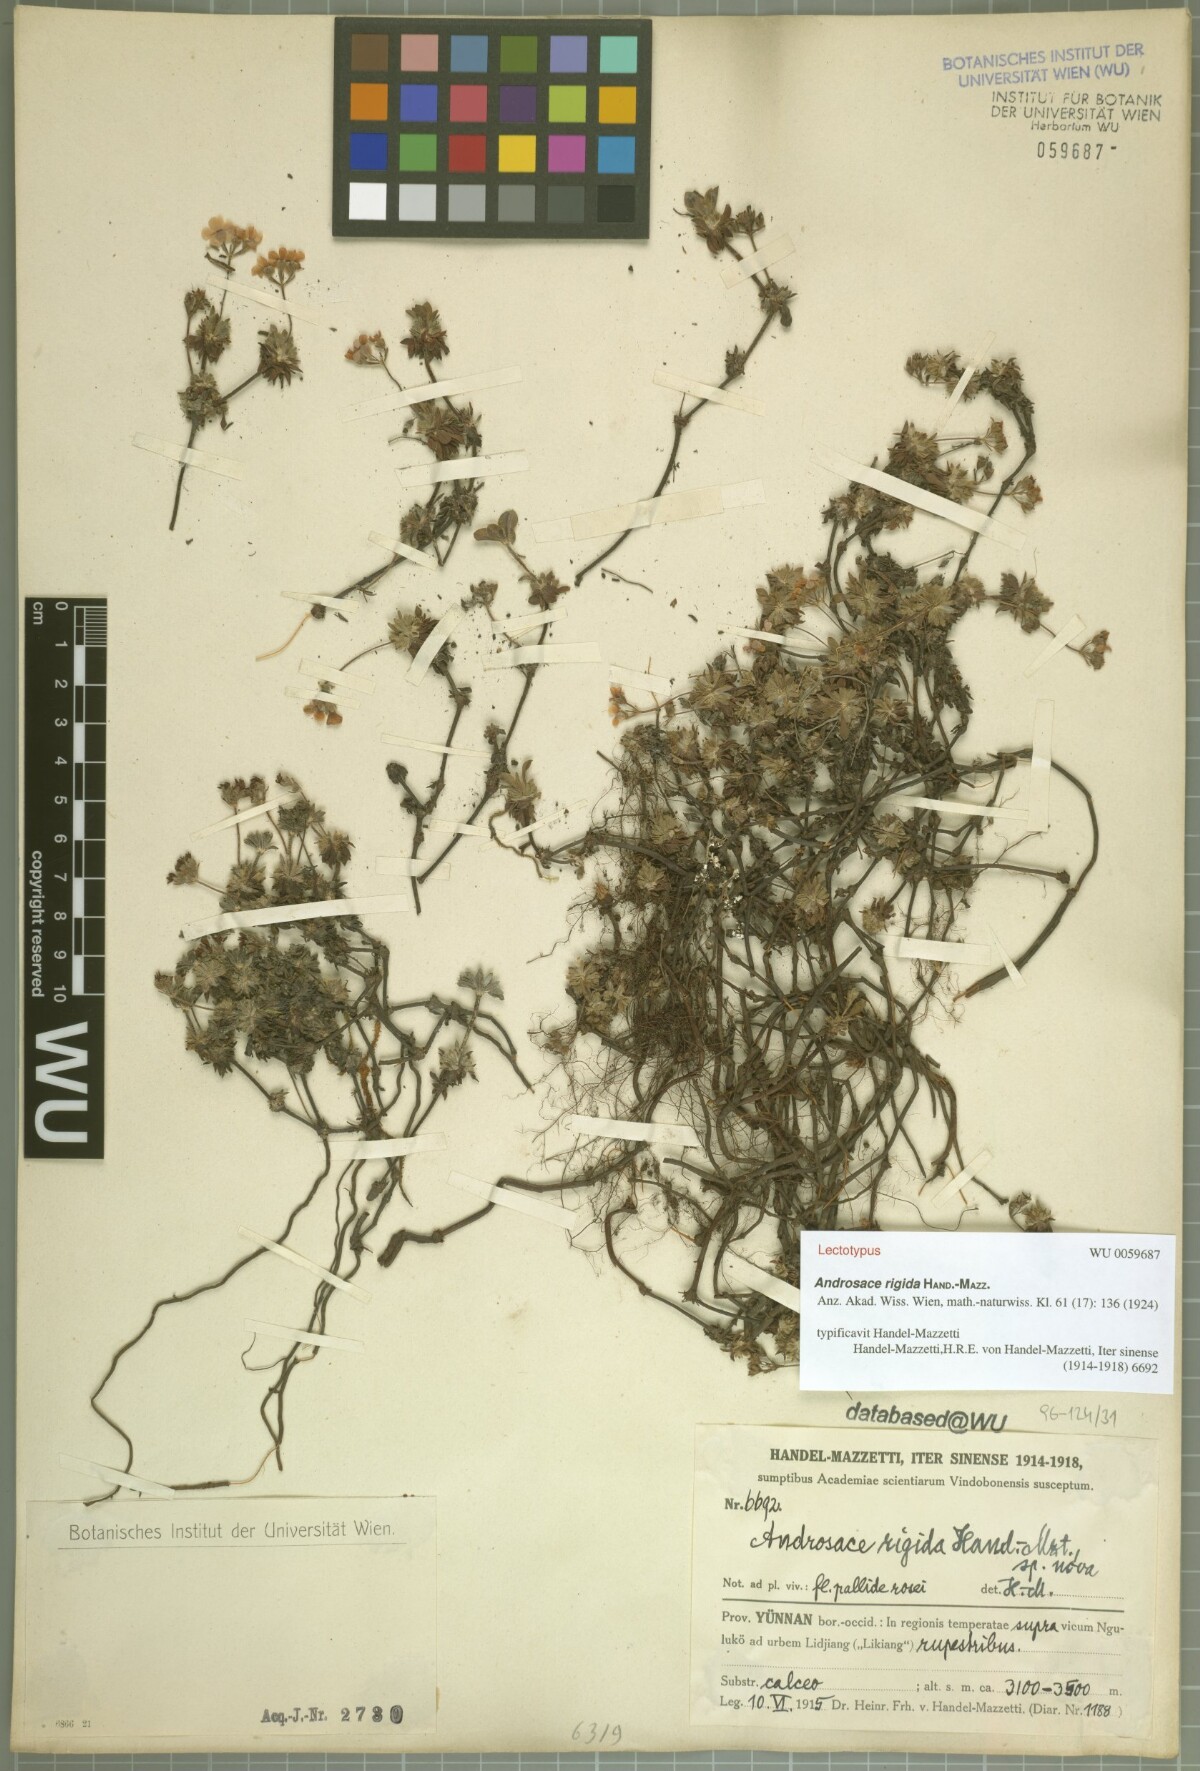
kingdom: Plantae
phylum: Tracheophyta
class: Magnoliopsida
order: Ericales
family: Primulaceae
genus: Androsace
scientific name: Androsace rigida
